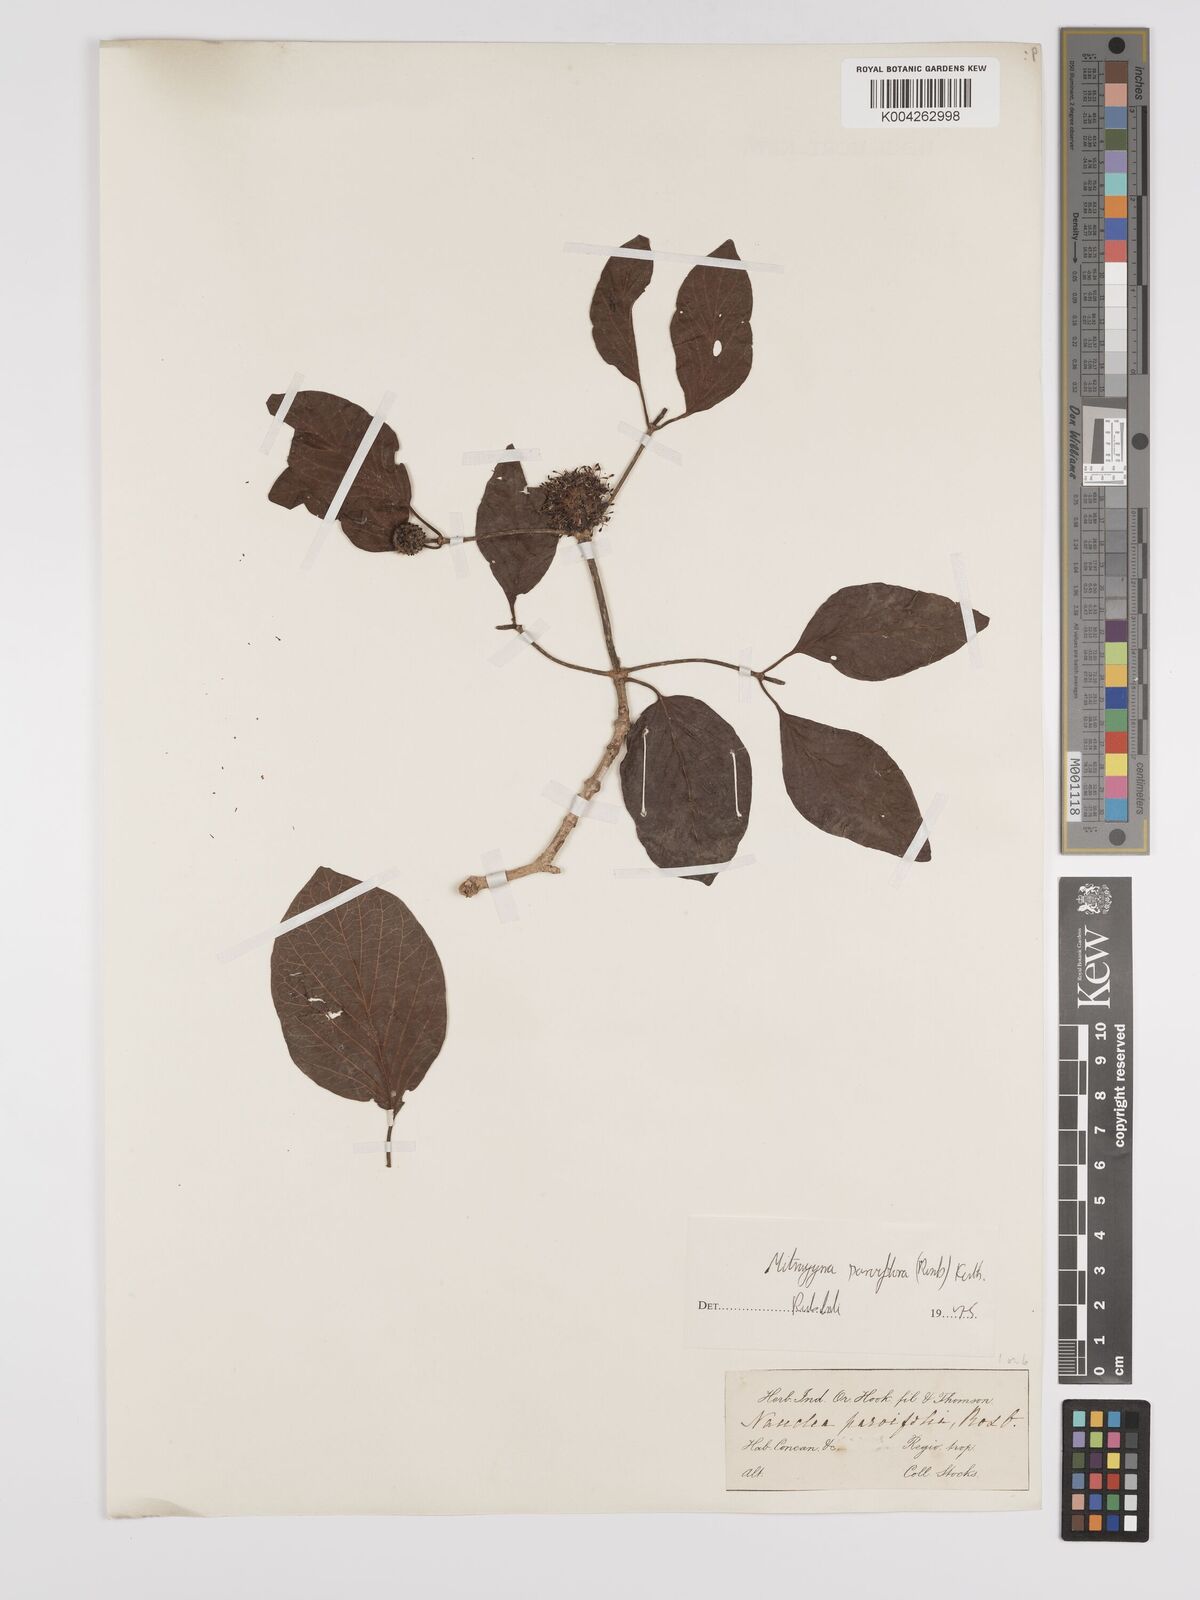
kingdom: Plantae
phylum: Tracheophyta
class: Magnoliopsida
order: Gentianales
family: Rubiaceae
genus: Mitragyna
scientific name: Mitragyna parvifolia
